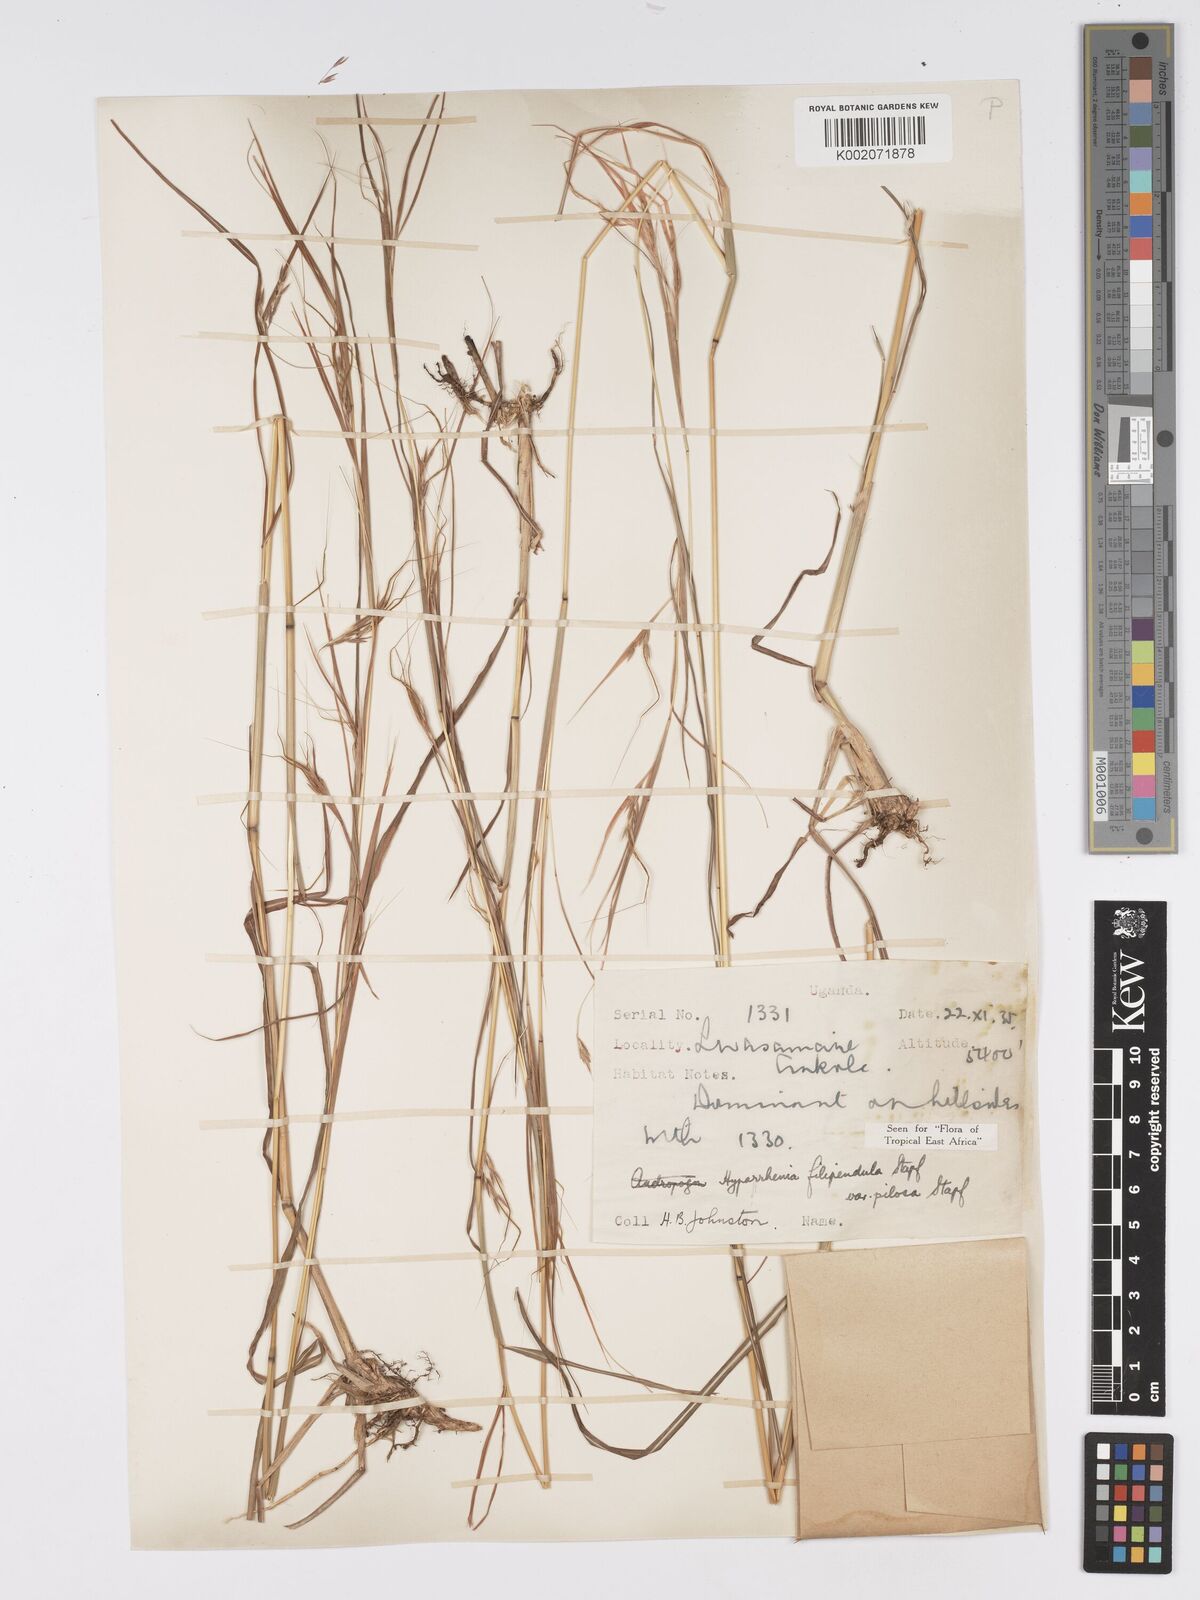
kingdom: Plantae
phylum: Tracheophyta
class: Liliopsida
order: Poales
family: Poaceae
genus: Hyparrhenia
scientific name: Hyparrhenia filipendula
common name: Tambookie grass
